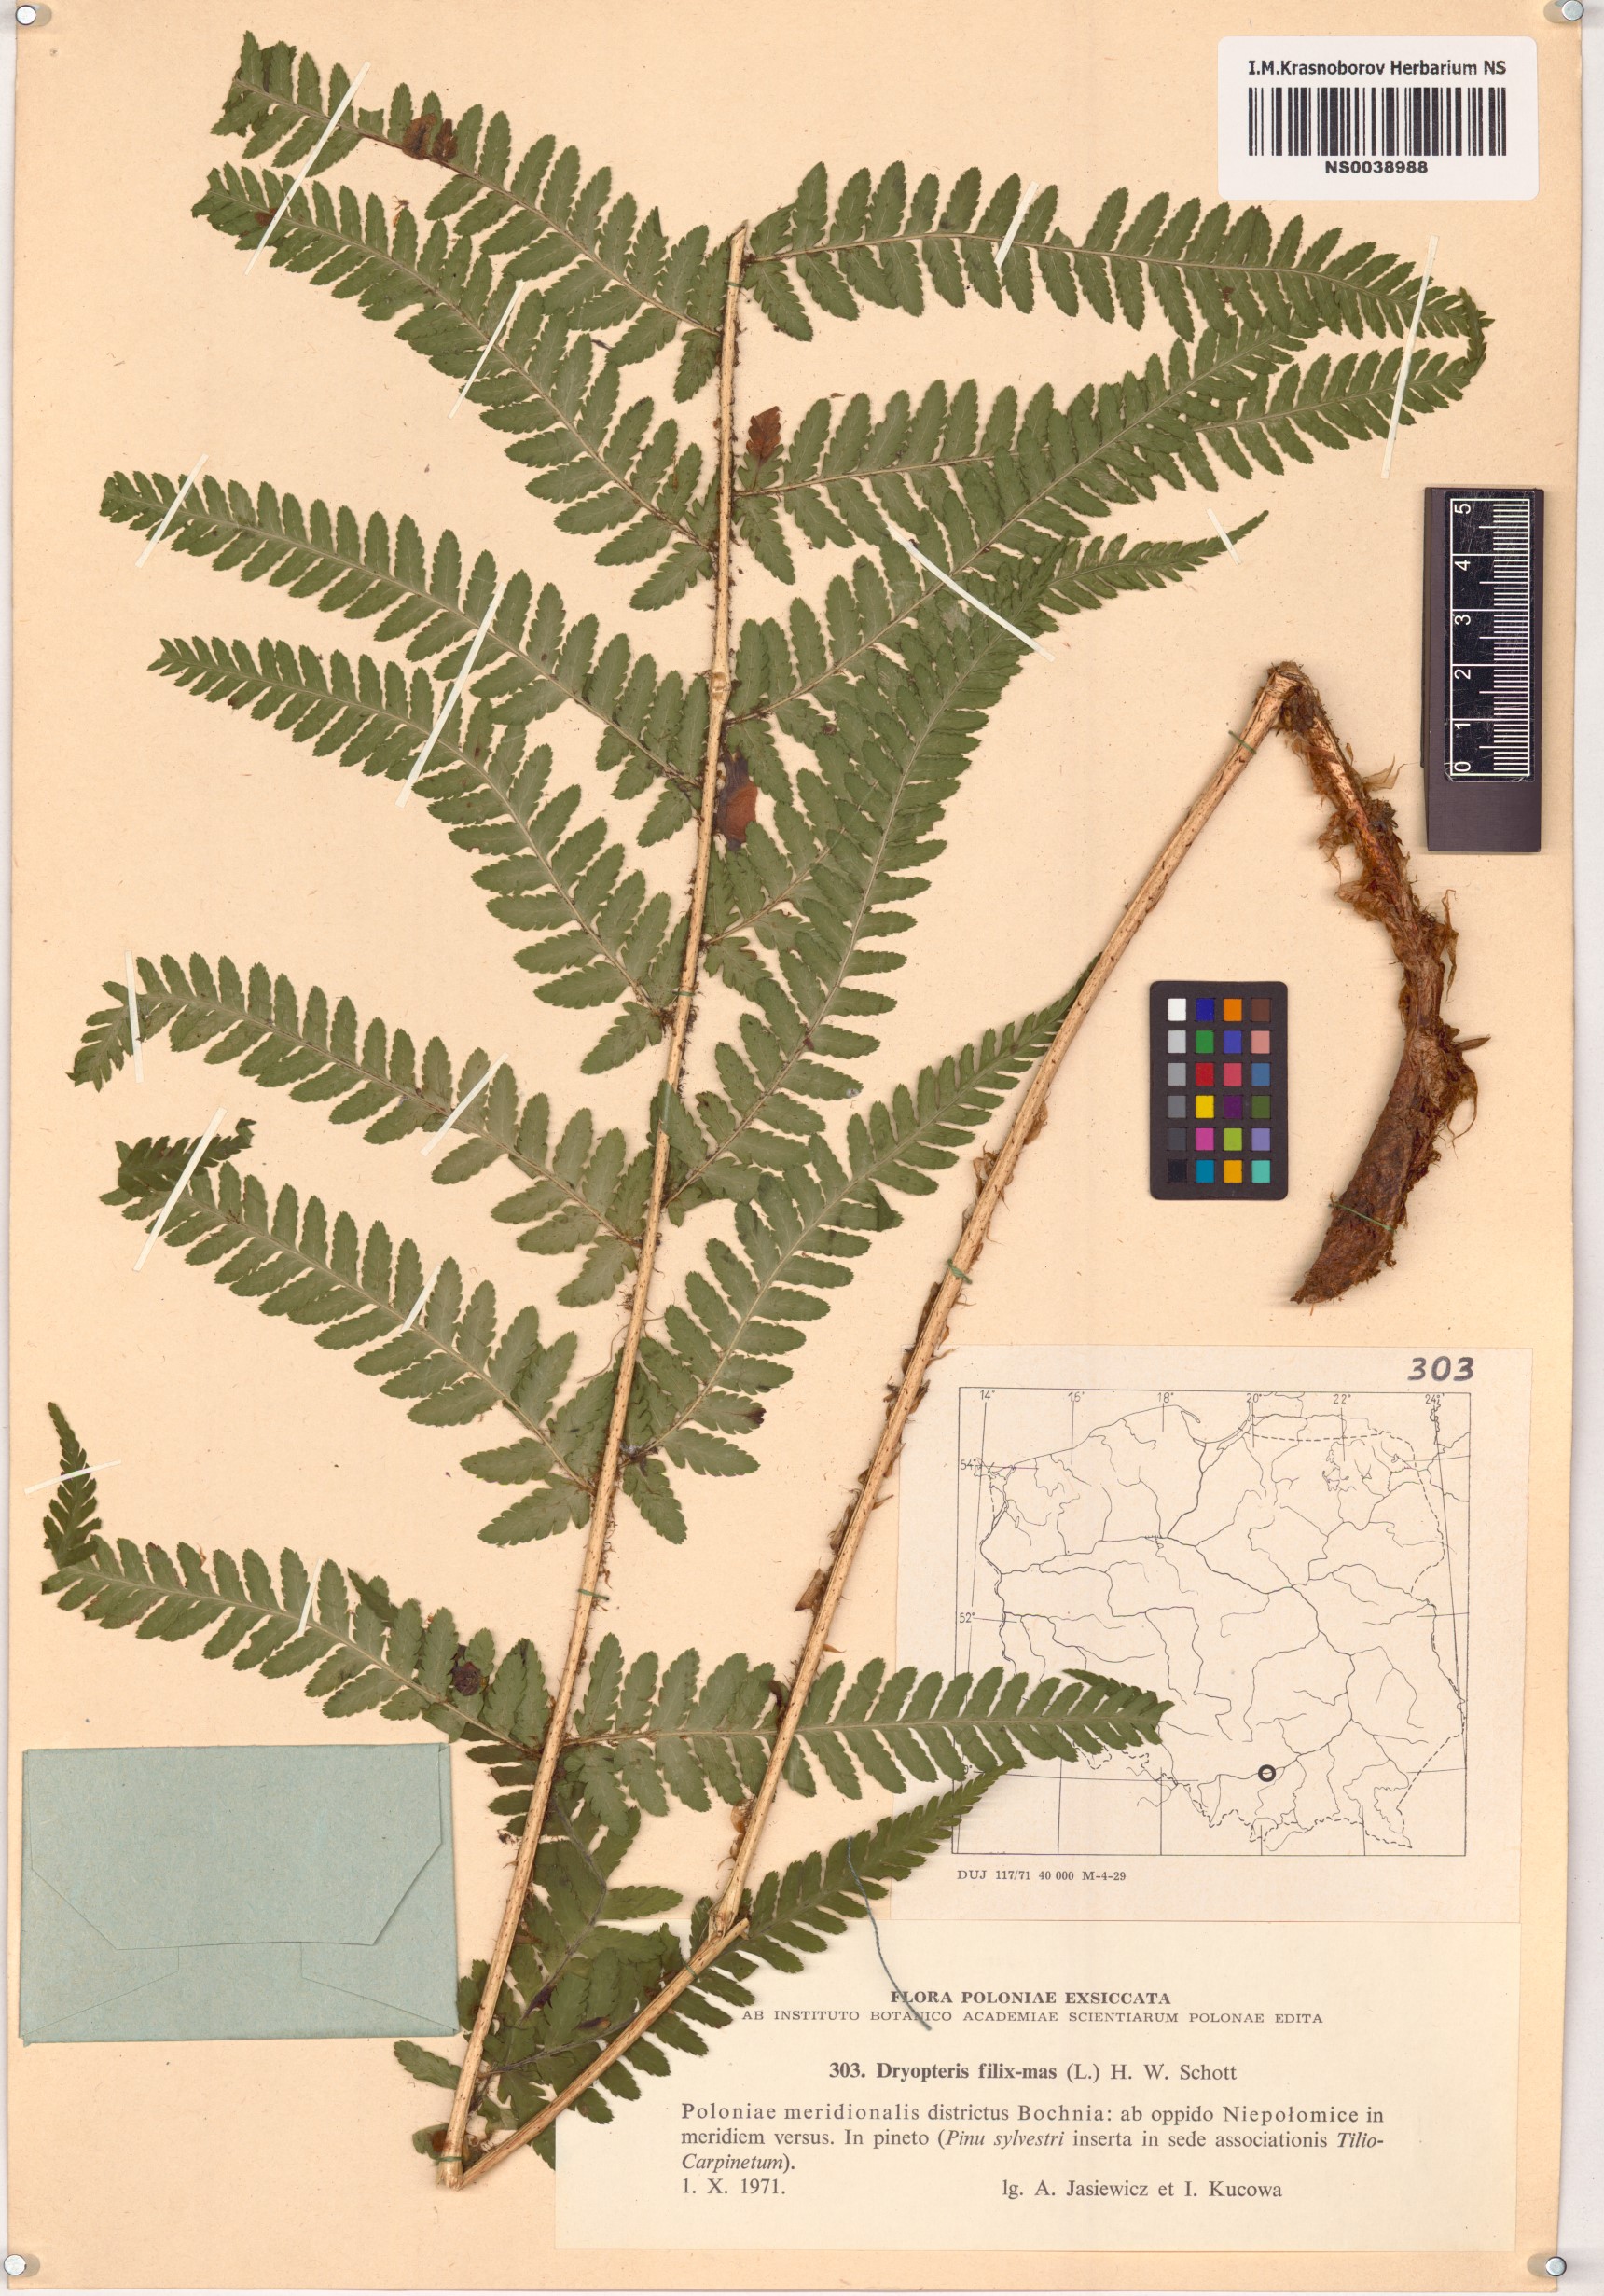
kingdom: Plantae
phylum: Tracheophyta
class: Polypodiopsida
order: Polypodiales
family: Dryopteridaceae
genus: Dryopteris
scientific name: Dryopteris filix-mas
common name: Male fern
